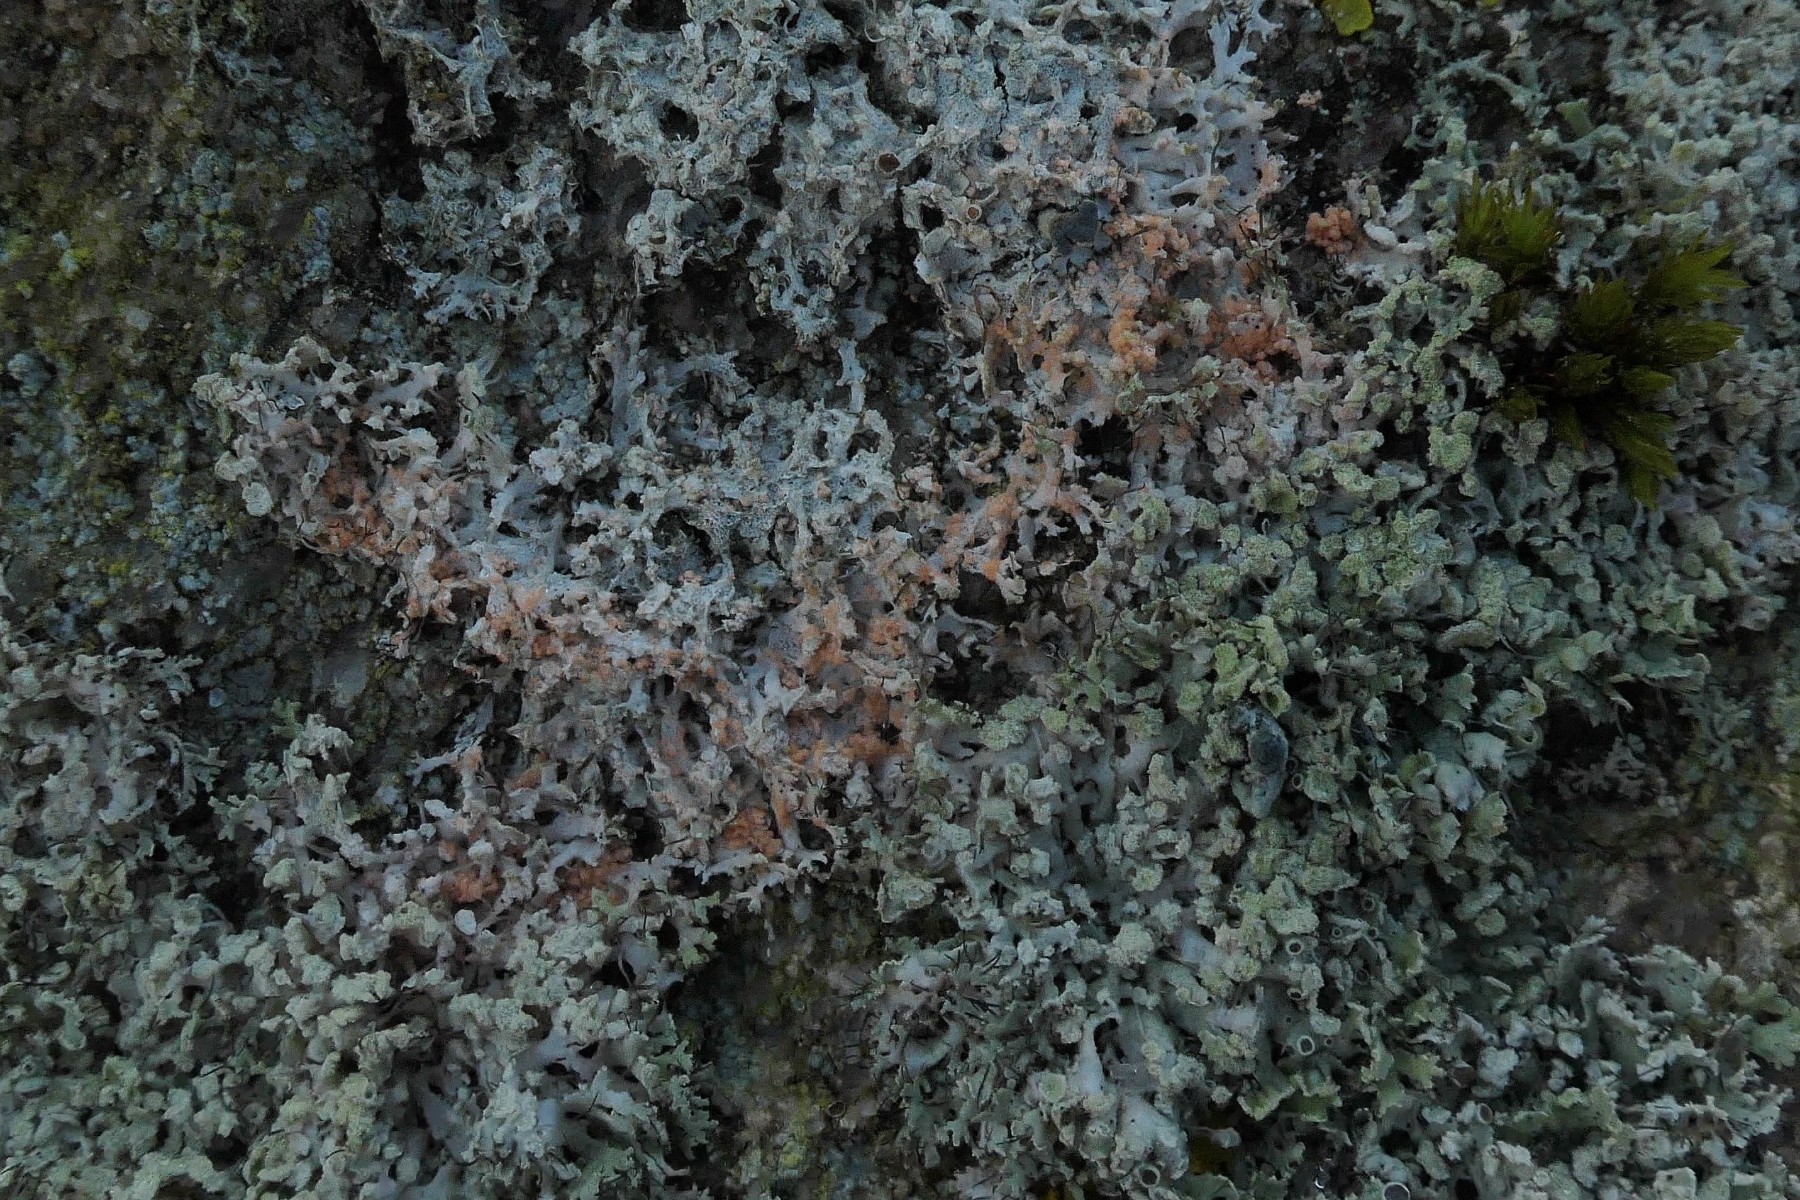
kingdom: Fungi
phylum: Basidiomycota
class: Agaricomycetes
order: Corticiales
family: Corticiaceae
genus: Erythricium
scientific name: Erythricium aurantiacum
